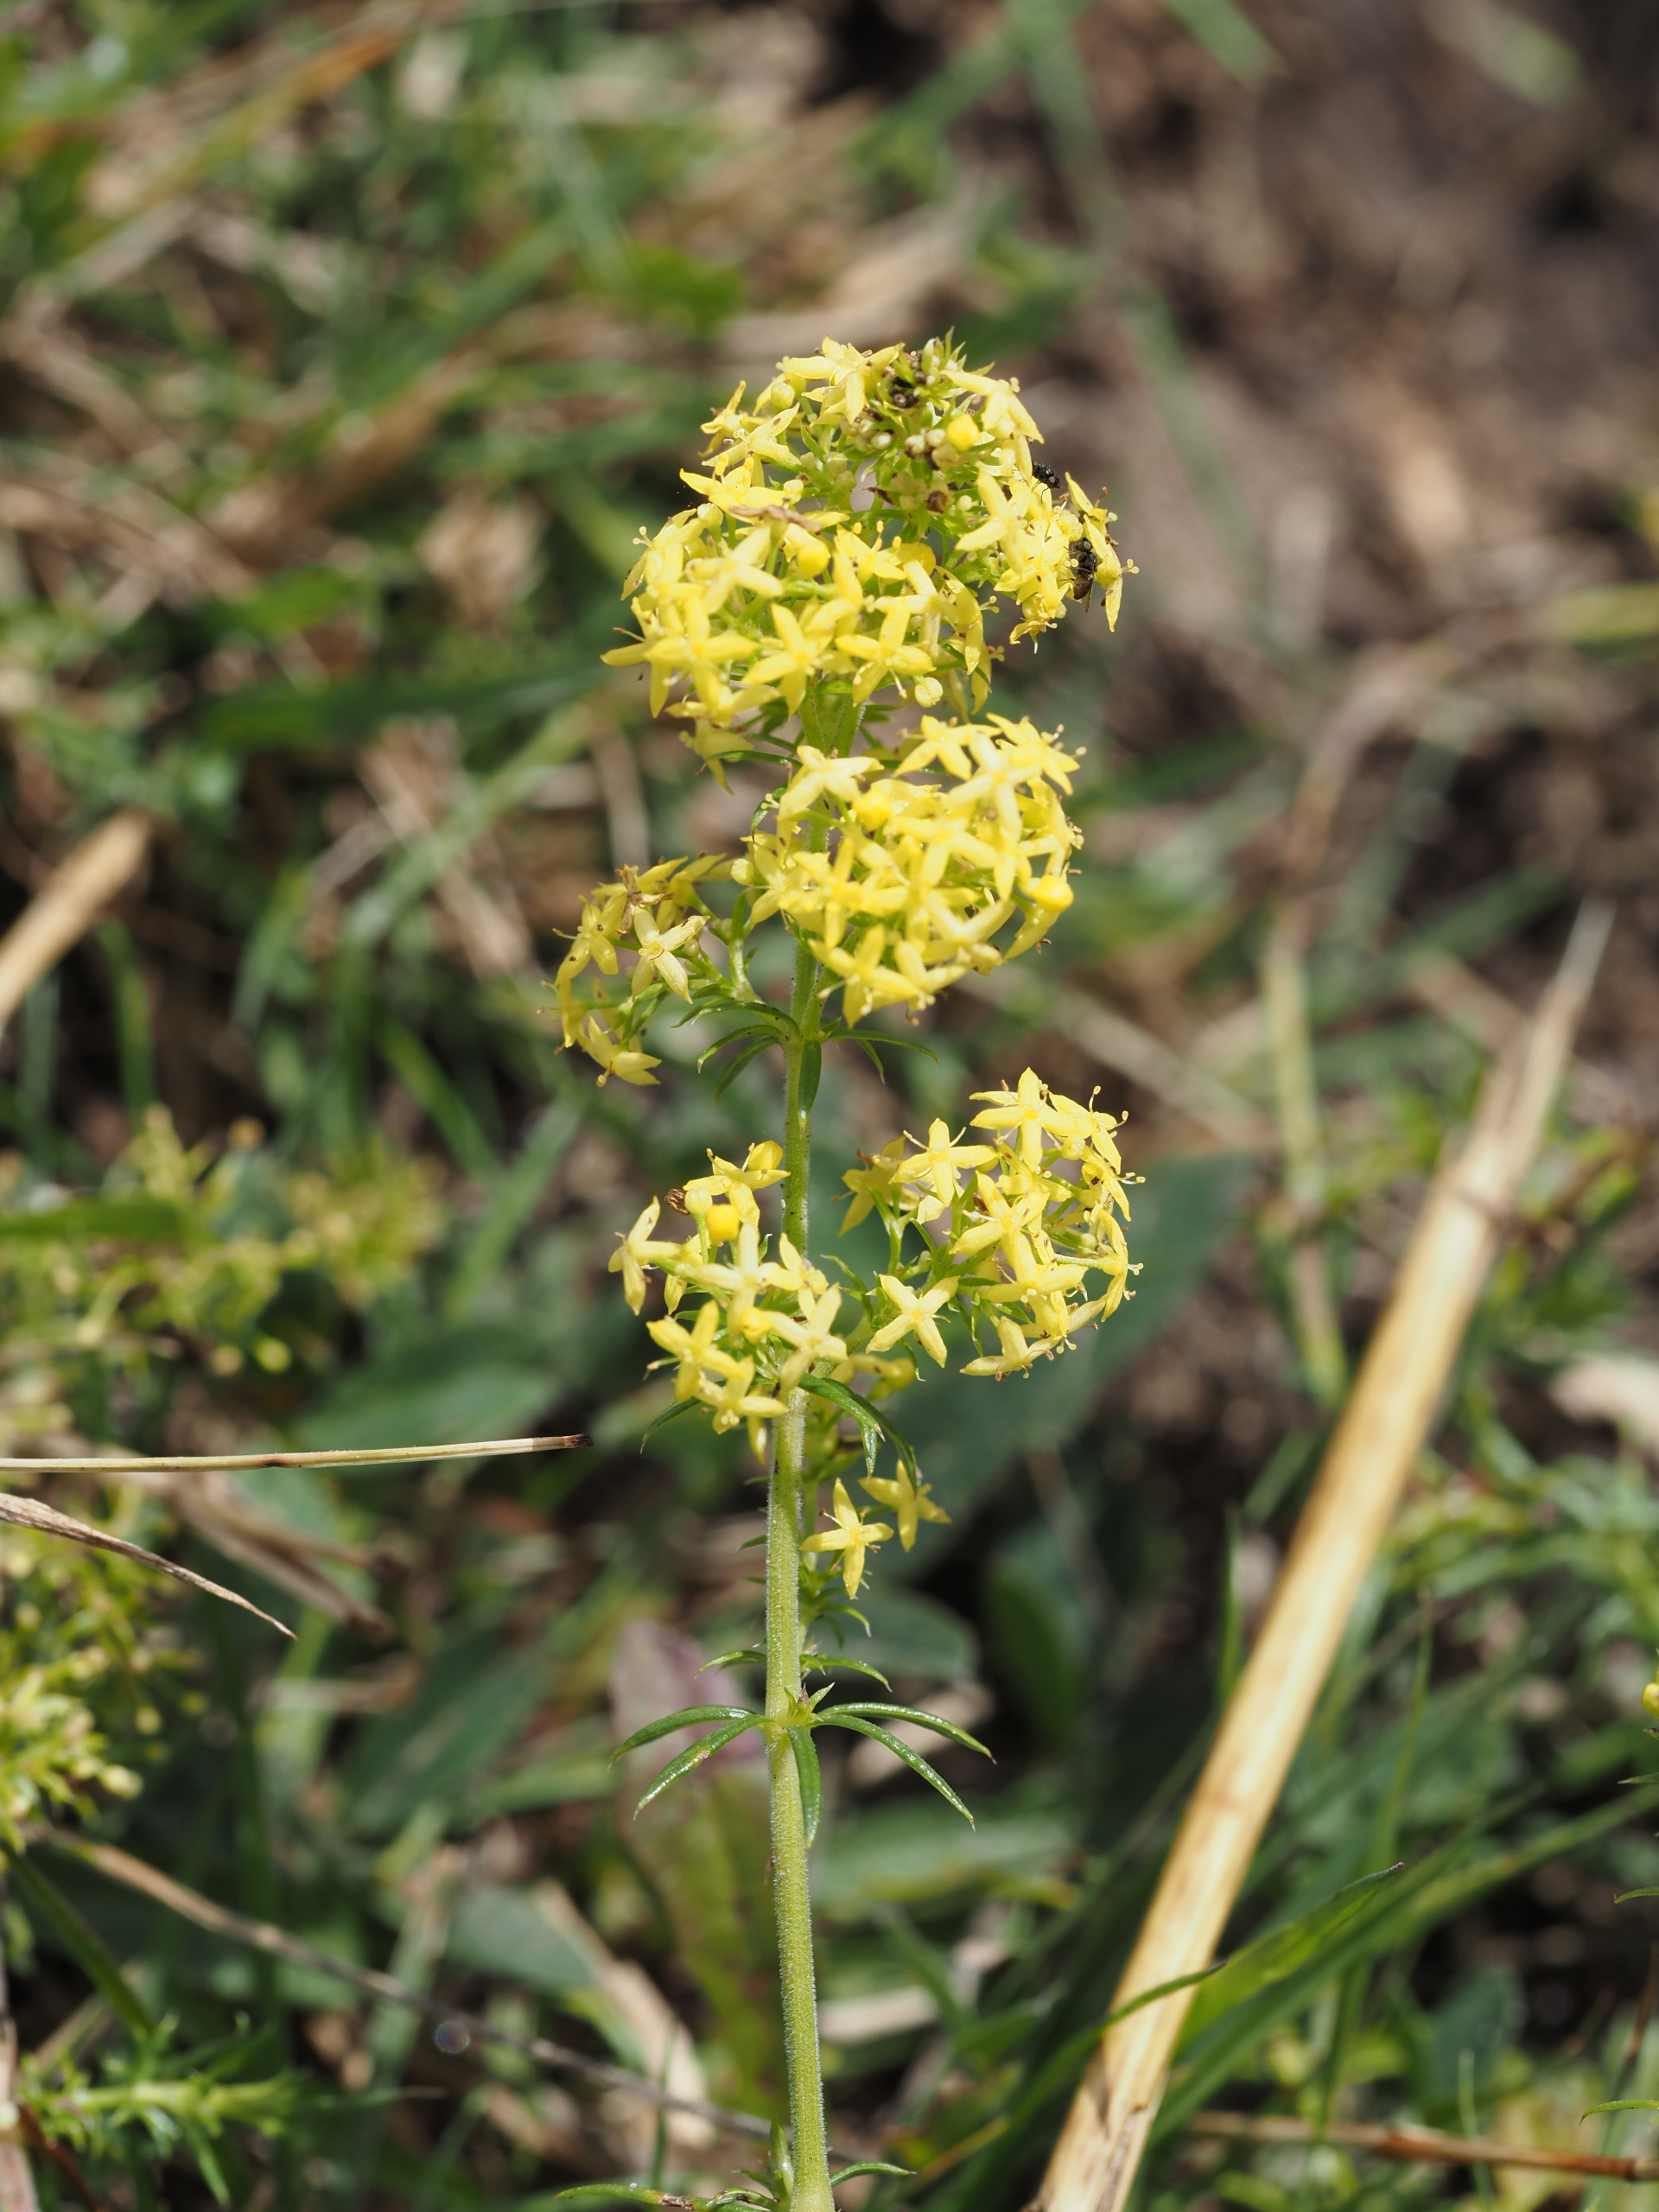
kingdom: Plantae
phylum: Tracheophyta
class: Magnoliopsida
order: Gentianales
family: Rubiaceae
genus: Galium
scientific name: Galium verum
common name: Gul snerre
